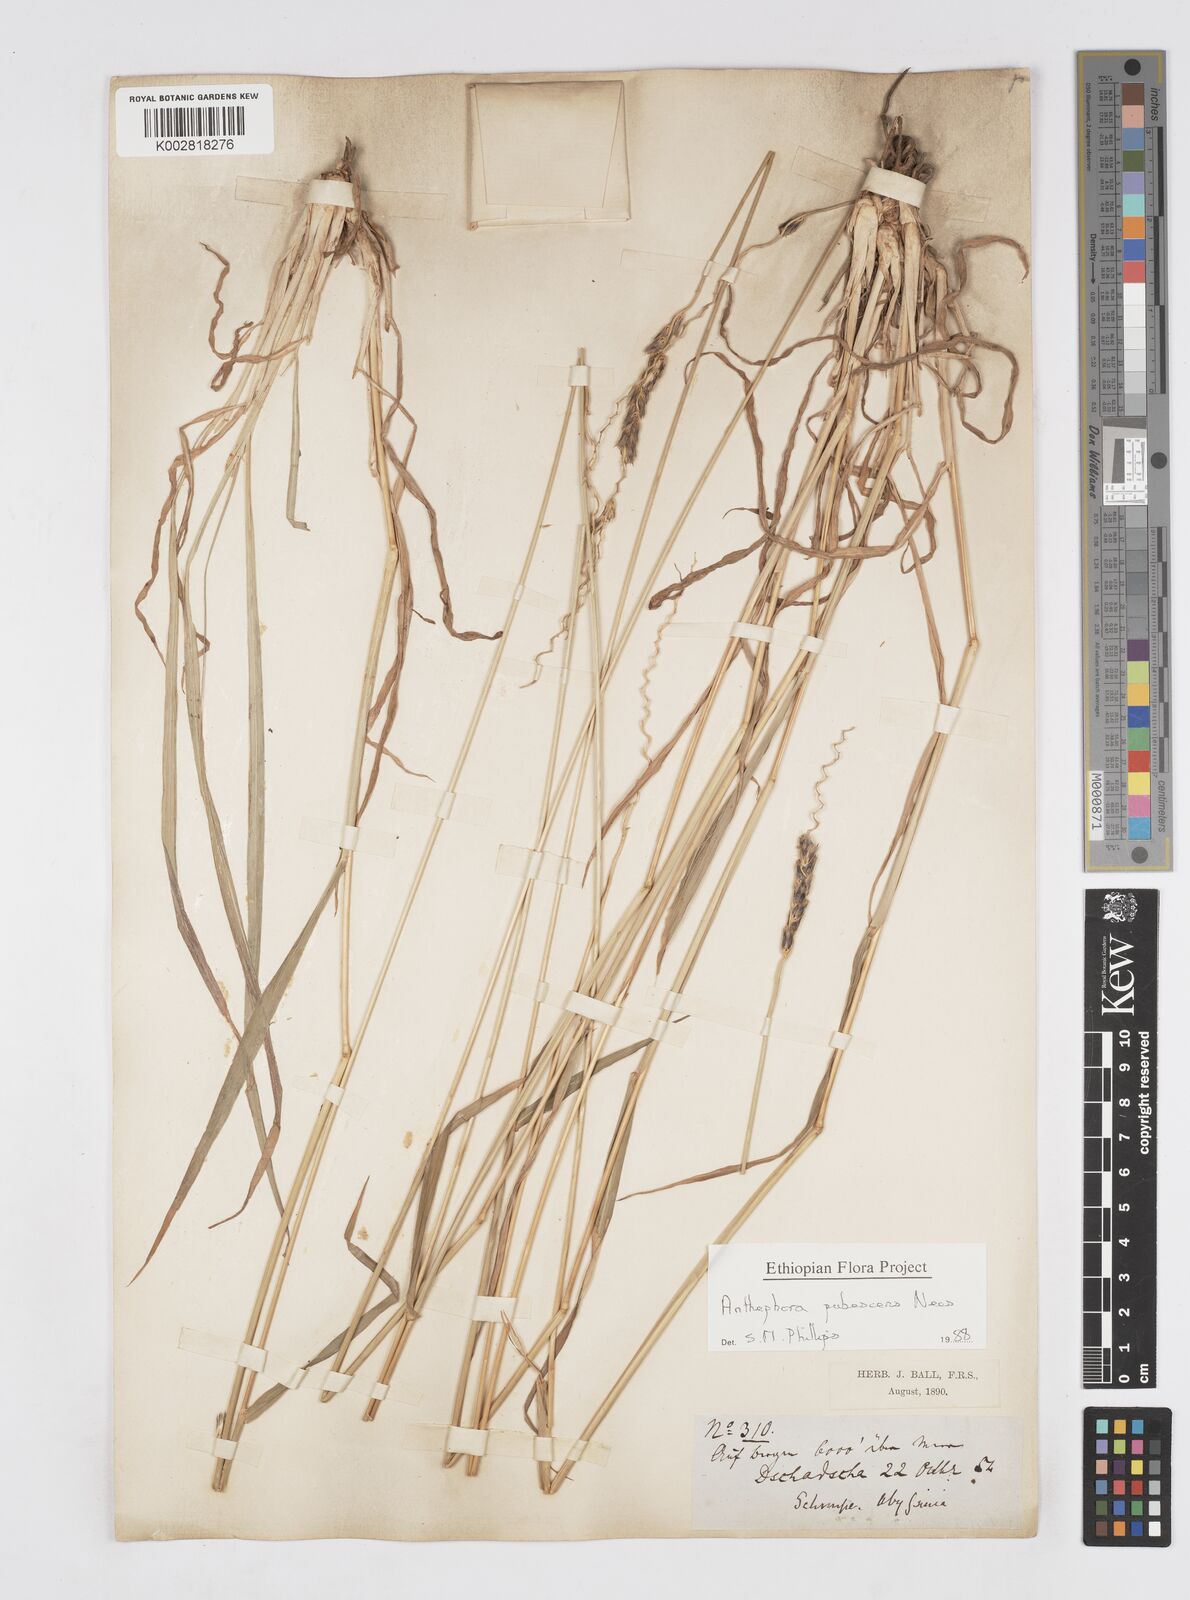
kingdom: Plantae
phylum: Tracheophyta
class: Liliopsida
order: Poales
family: Poaceae
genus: Anthephora
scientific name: Anthephora pubescens
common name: Wool grass
